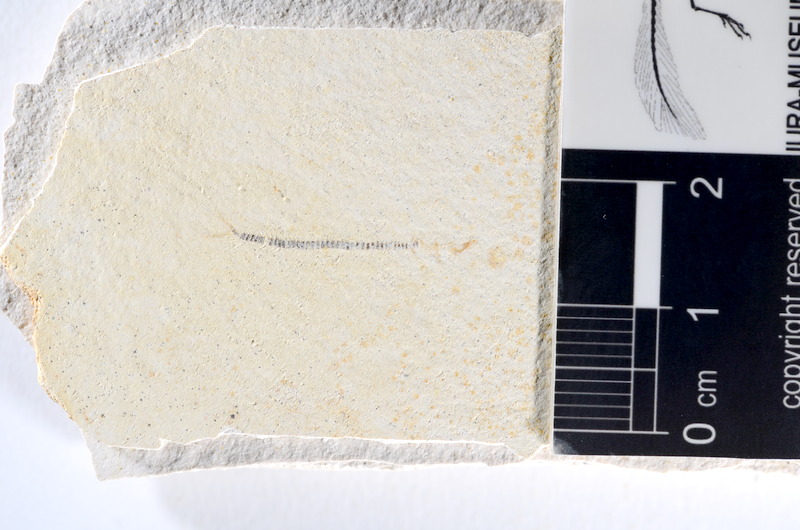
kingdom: Animalia
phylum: Chordata
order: Salmoniformes
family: Orthogonikleithridae
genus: Orthogonikleithrus
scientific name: Orthogonikleithrus hoelli
